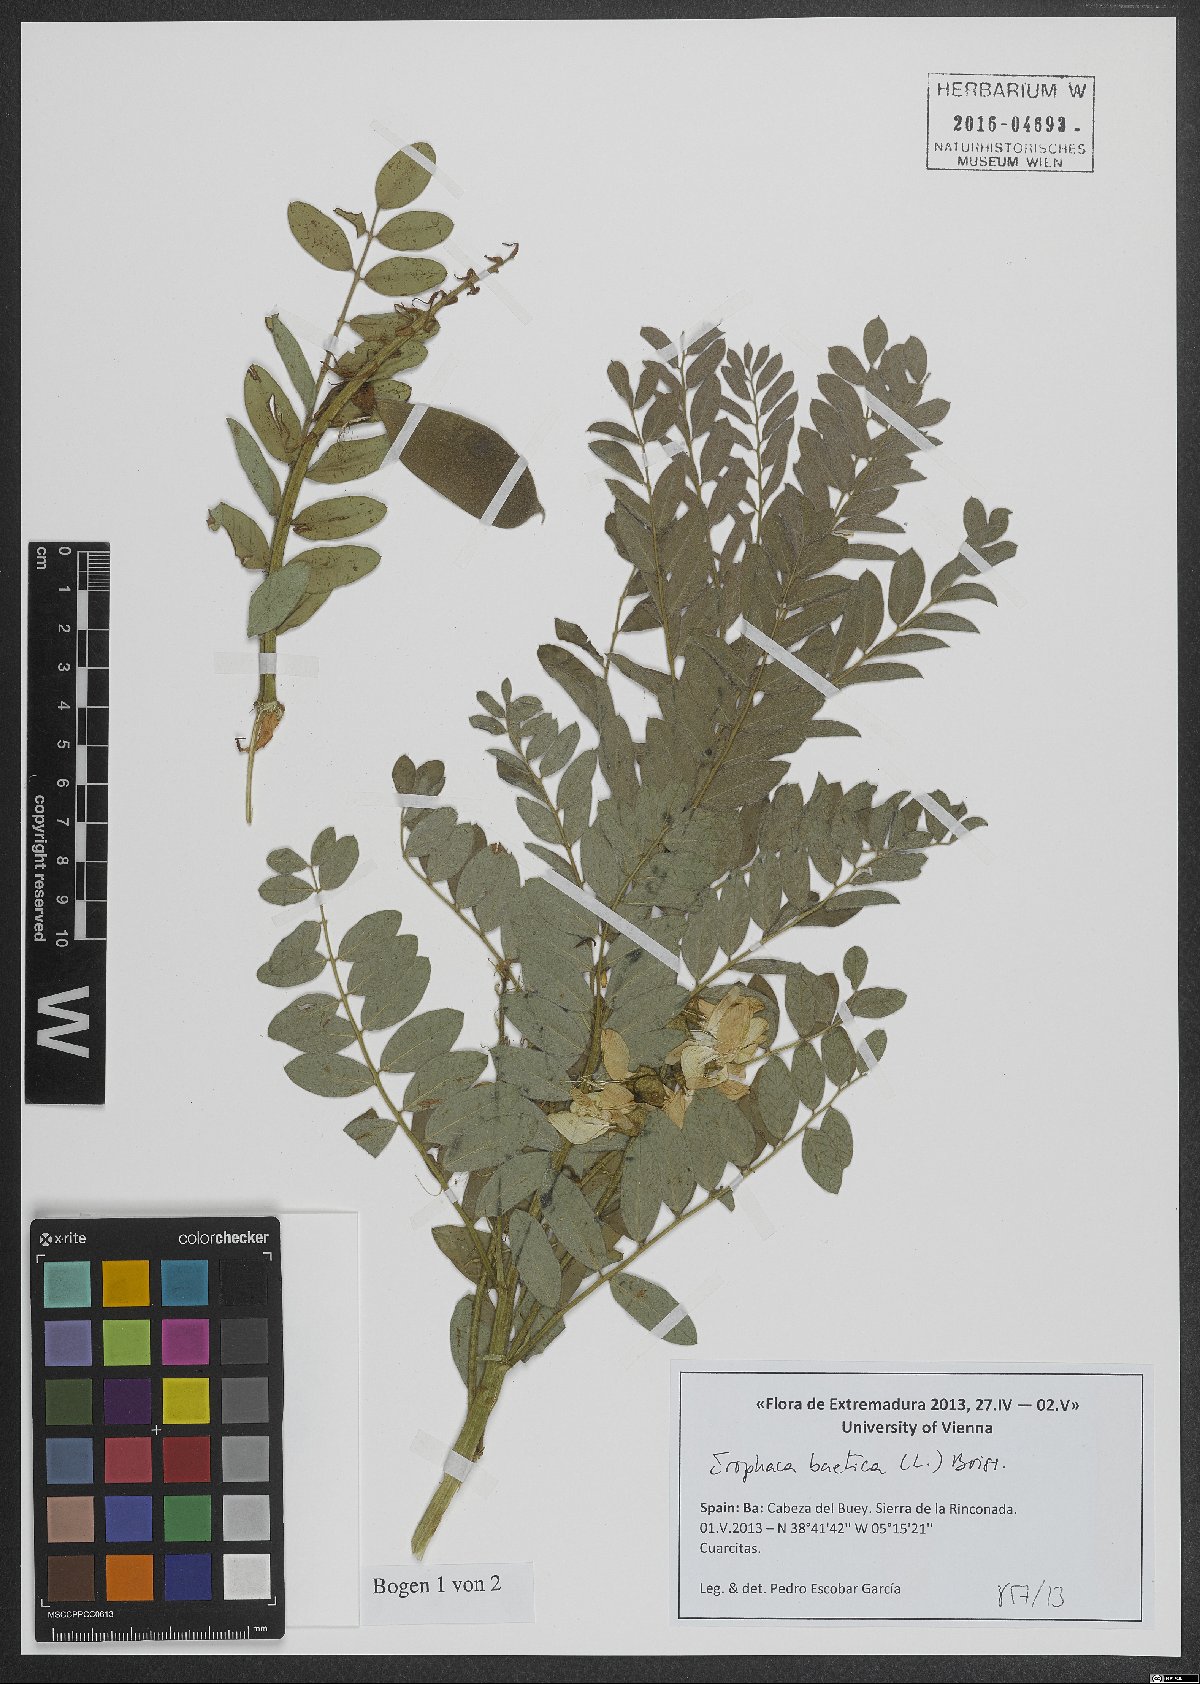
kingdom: Plantae
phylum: Tracheophyta
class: Magnoliopsida
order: Fabales
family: Fabaceae
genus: Erophaca
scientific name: Erophaca baetica
